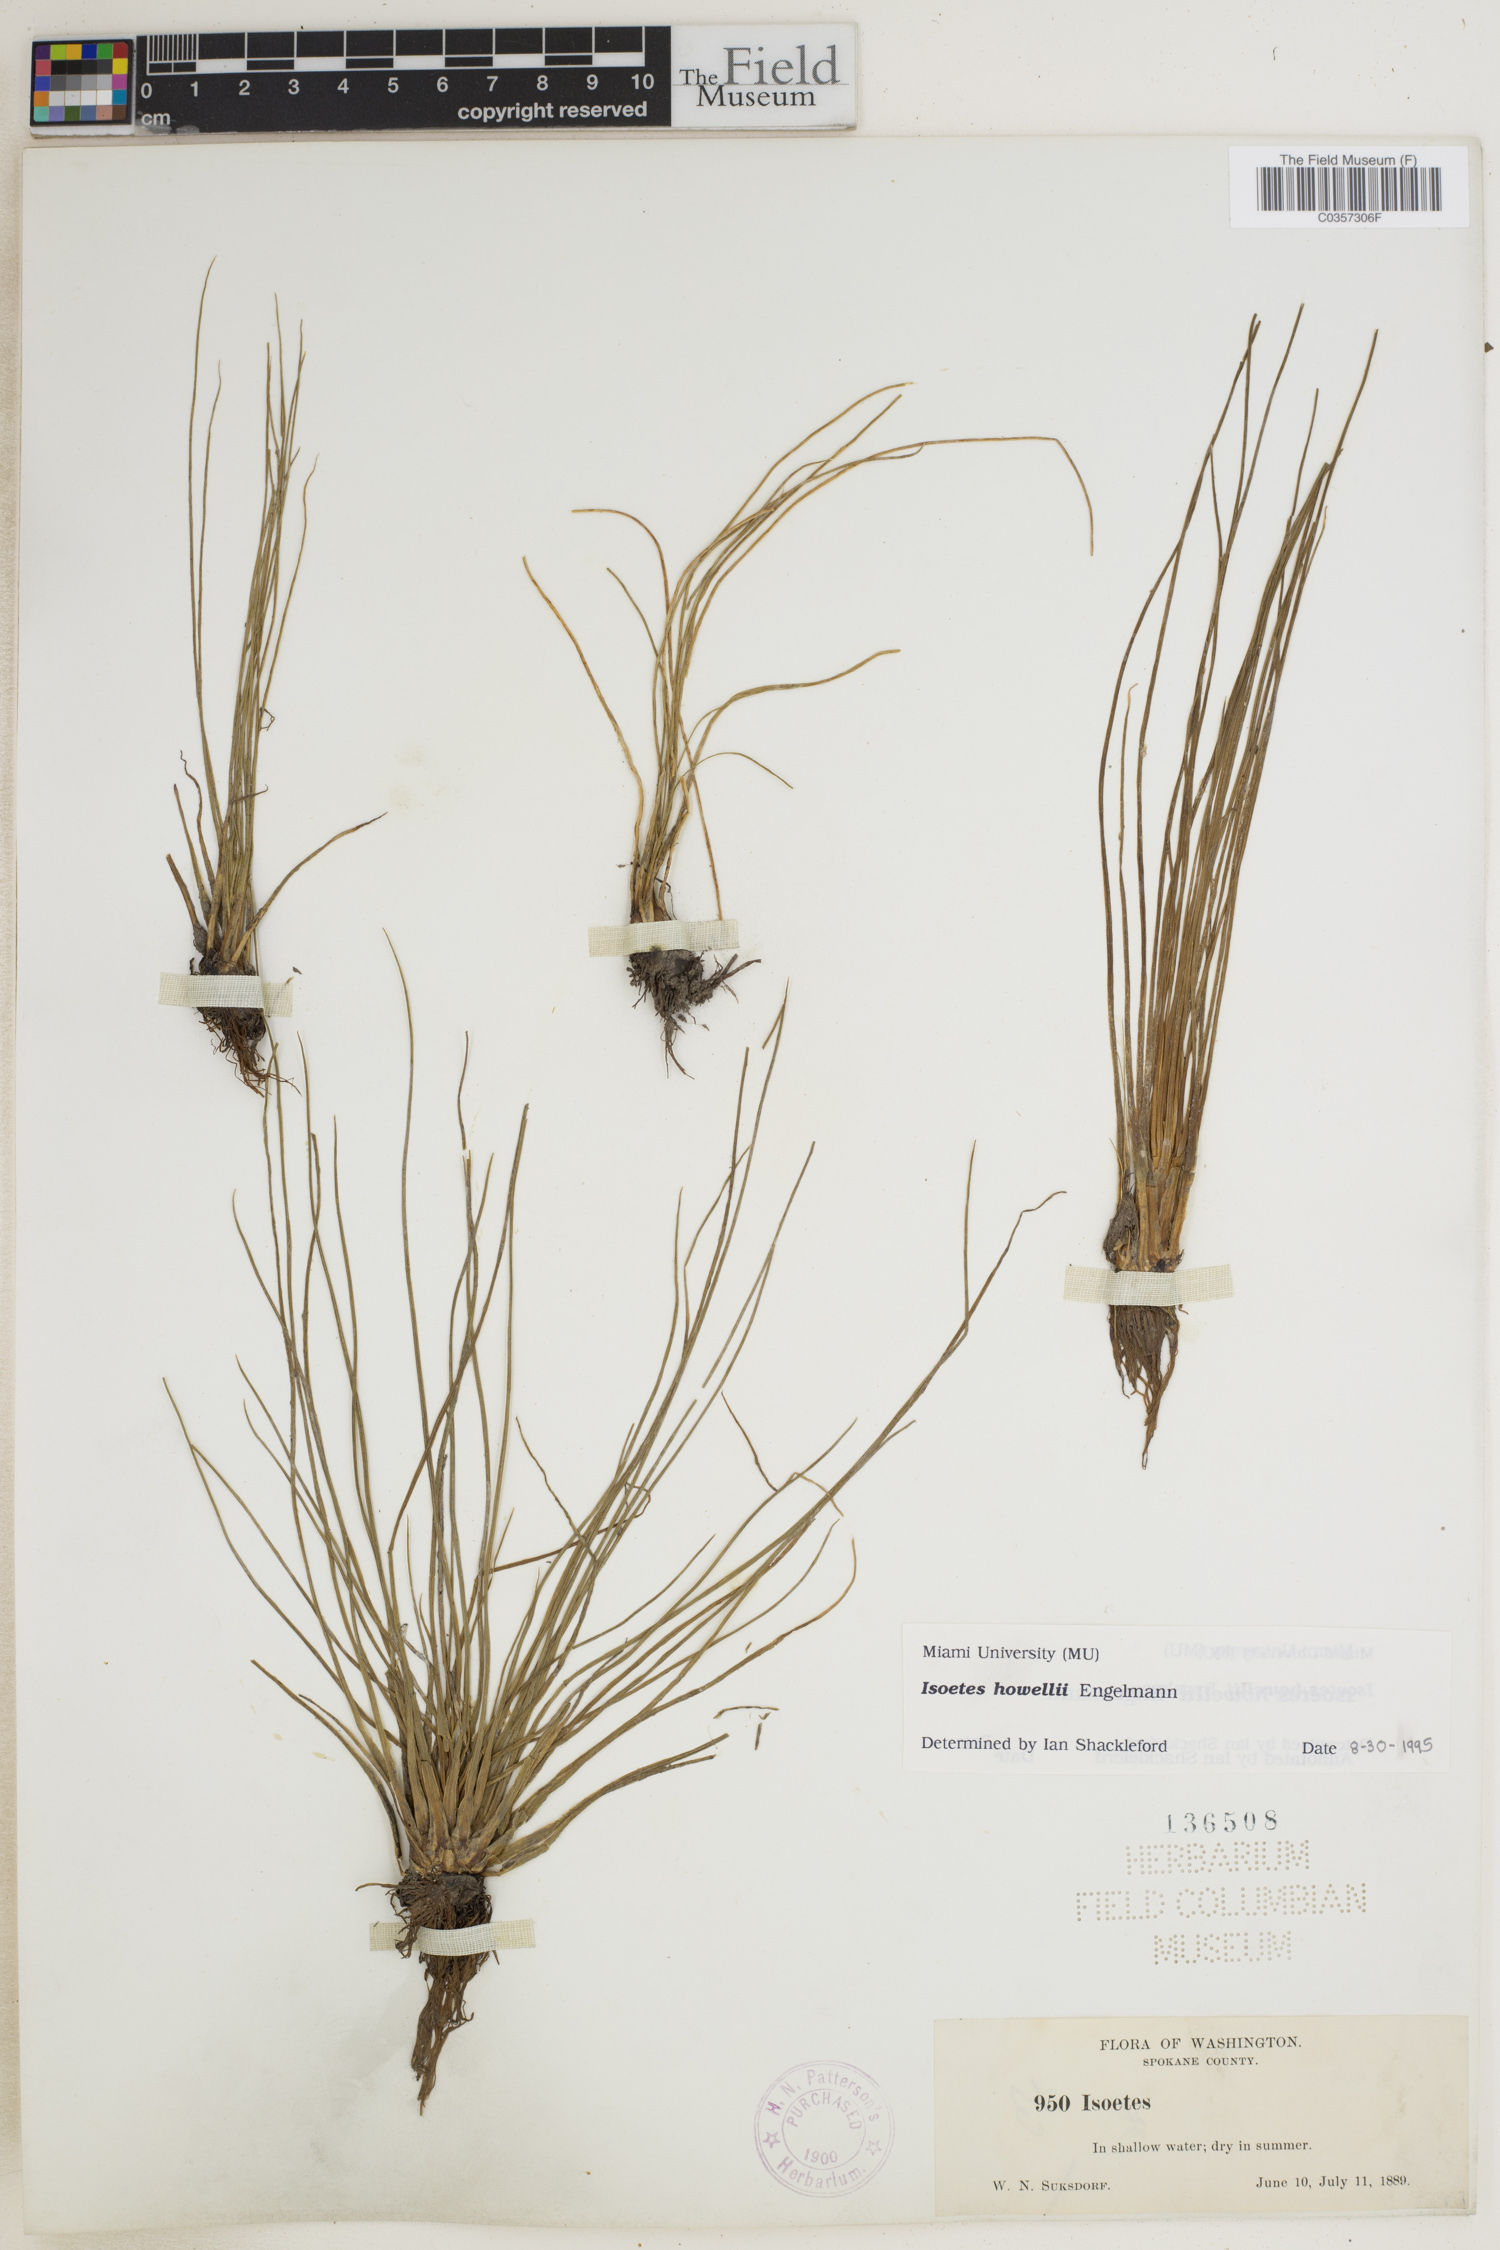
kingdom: Plantae
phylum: Tracheophyta
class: Lycopodiopsida
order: Isoetales
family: Isoetaceae
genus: Isoetes
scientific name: Isoetes howellii
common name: Howell's quillwort
